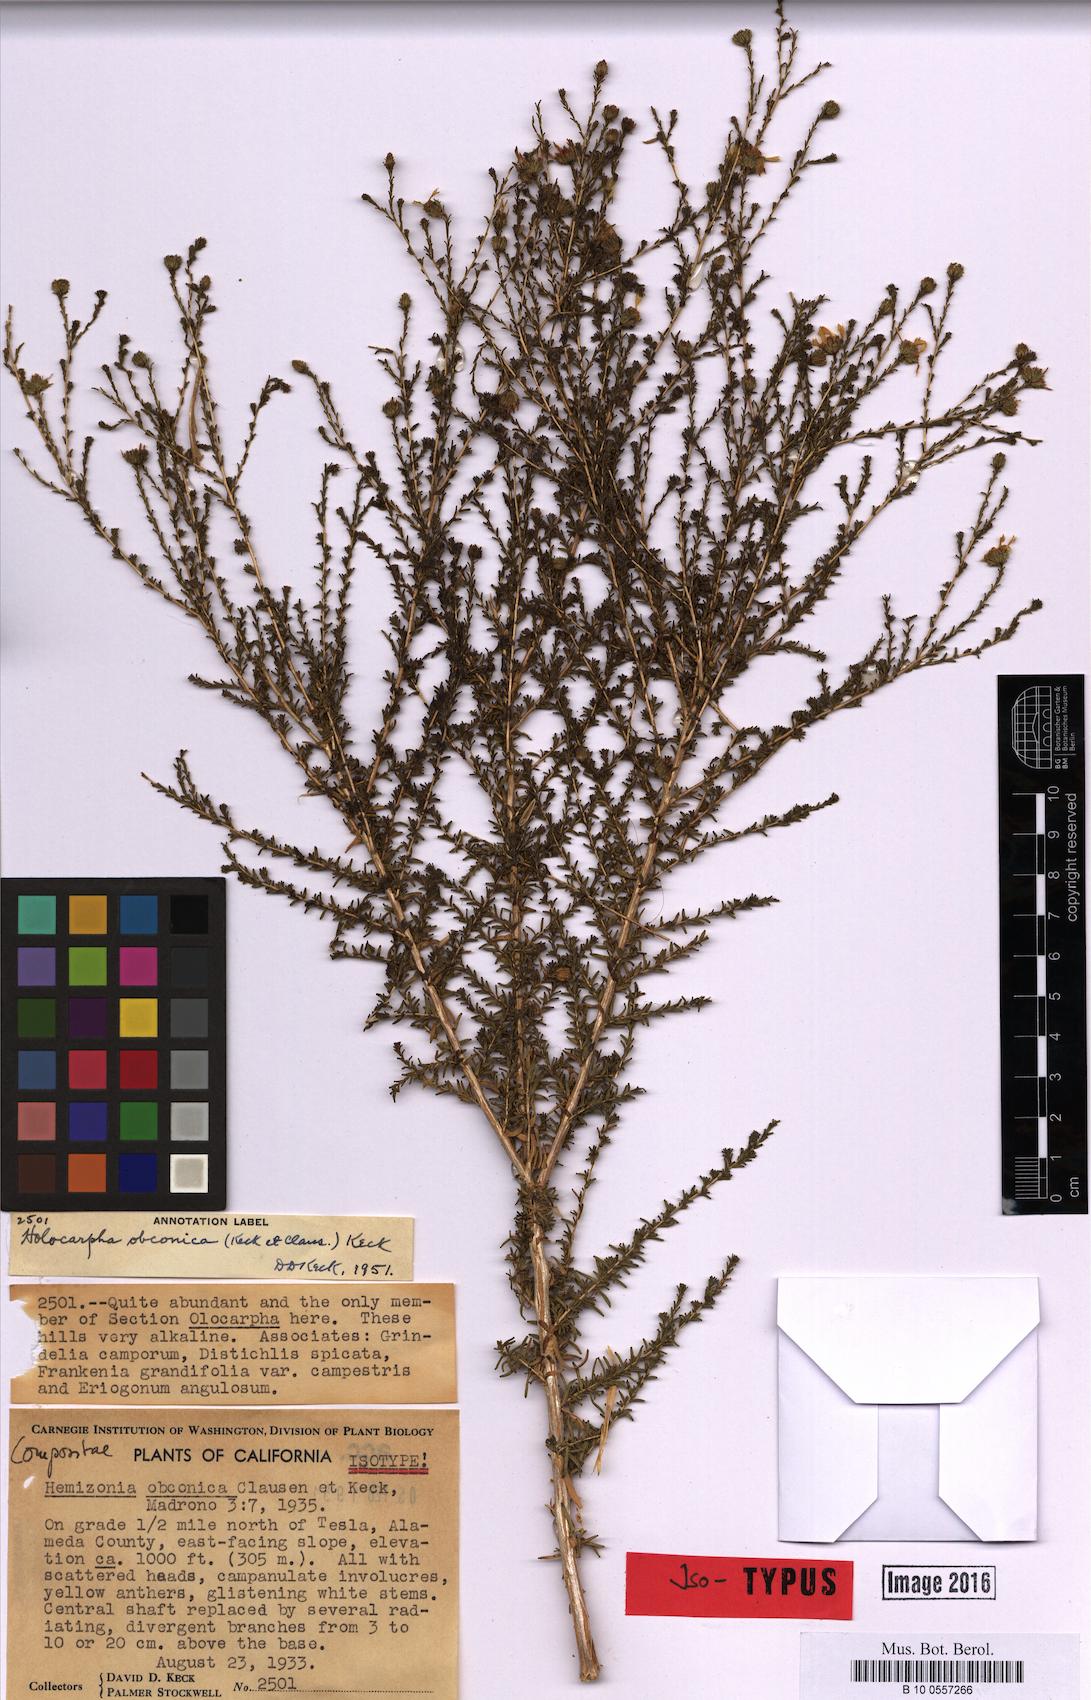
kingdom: Plantae
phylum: Tracheophyta
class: Magnoliopsida
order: Asterales
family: Asteraceae
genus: Holocarpha
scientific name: Holocarpha obconica
